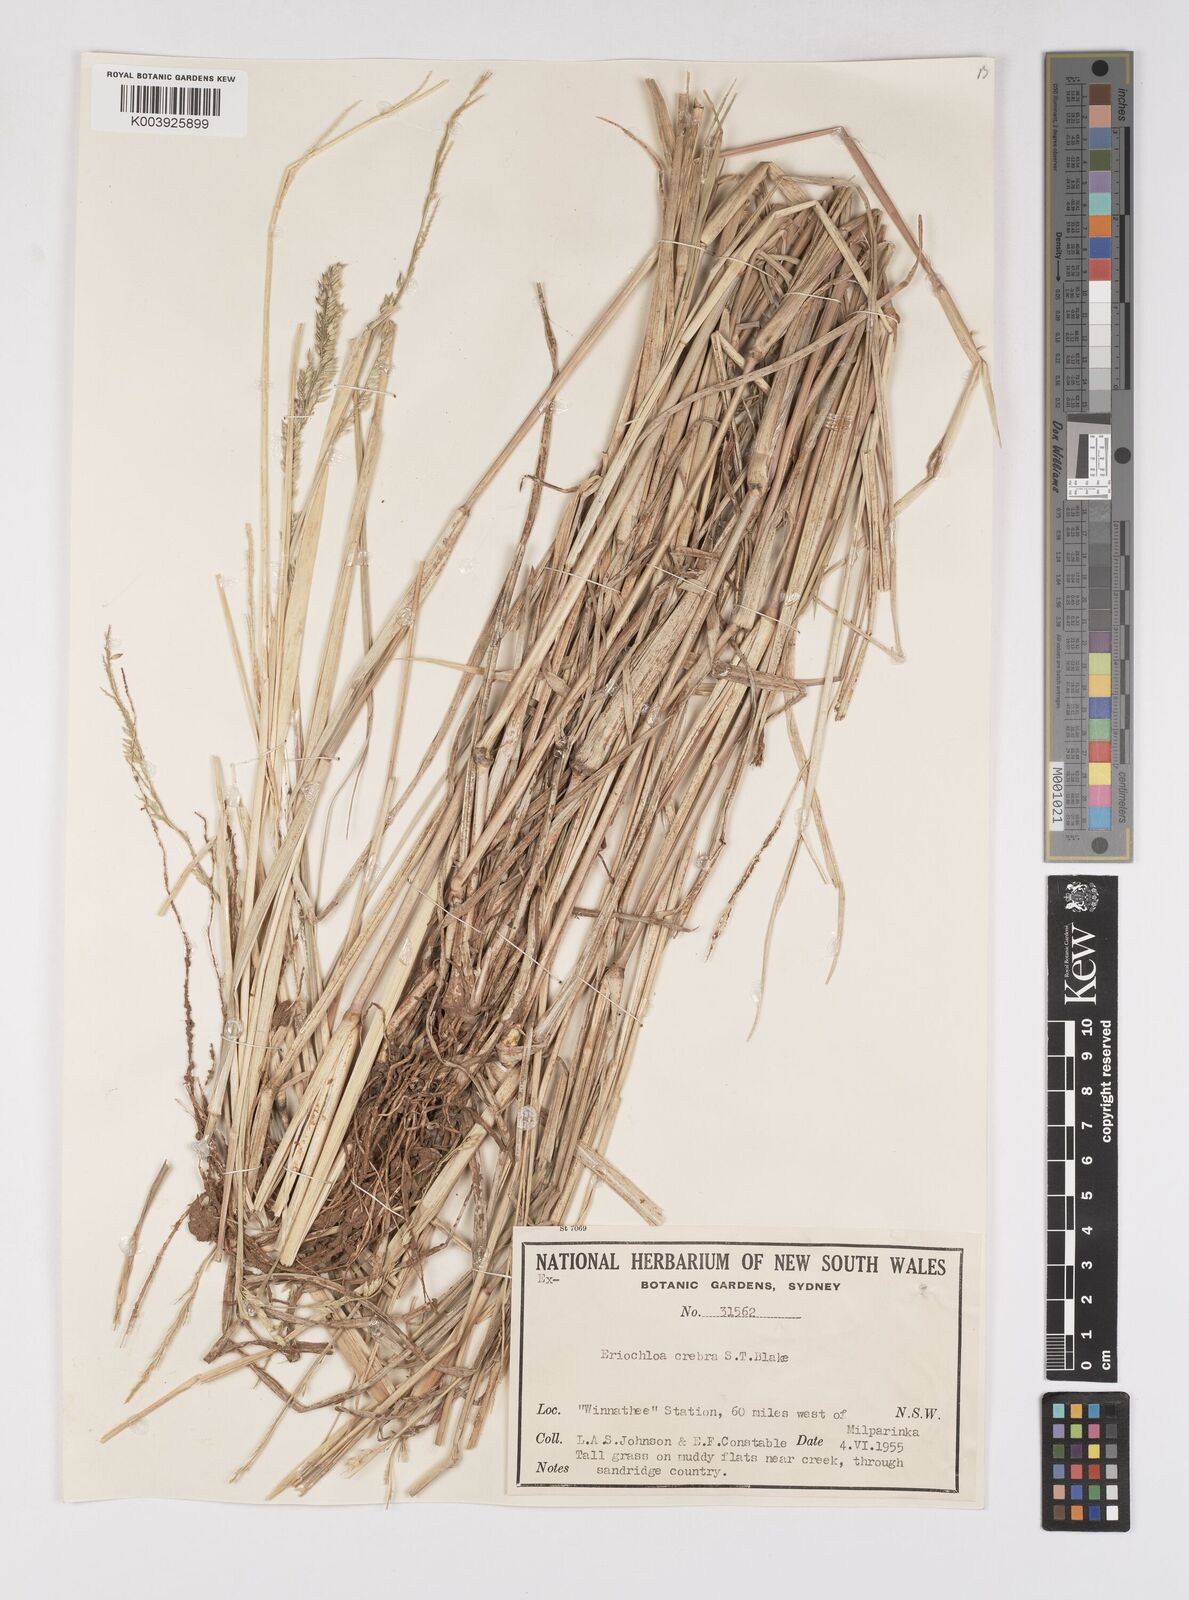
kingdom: Plantae
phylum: Tracheophyta
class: Liliopsida
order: Poales
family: Poaceae
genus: Eriochloa
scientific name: Eriochloa crebra
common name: Cup grass
